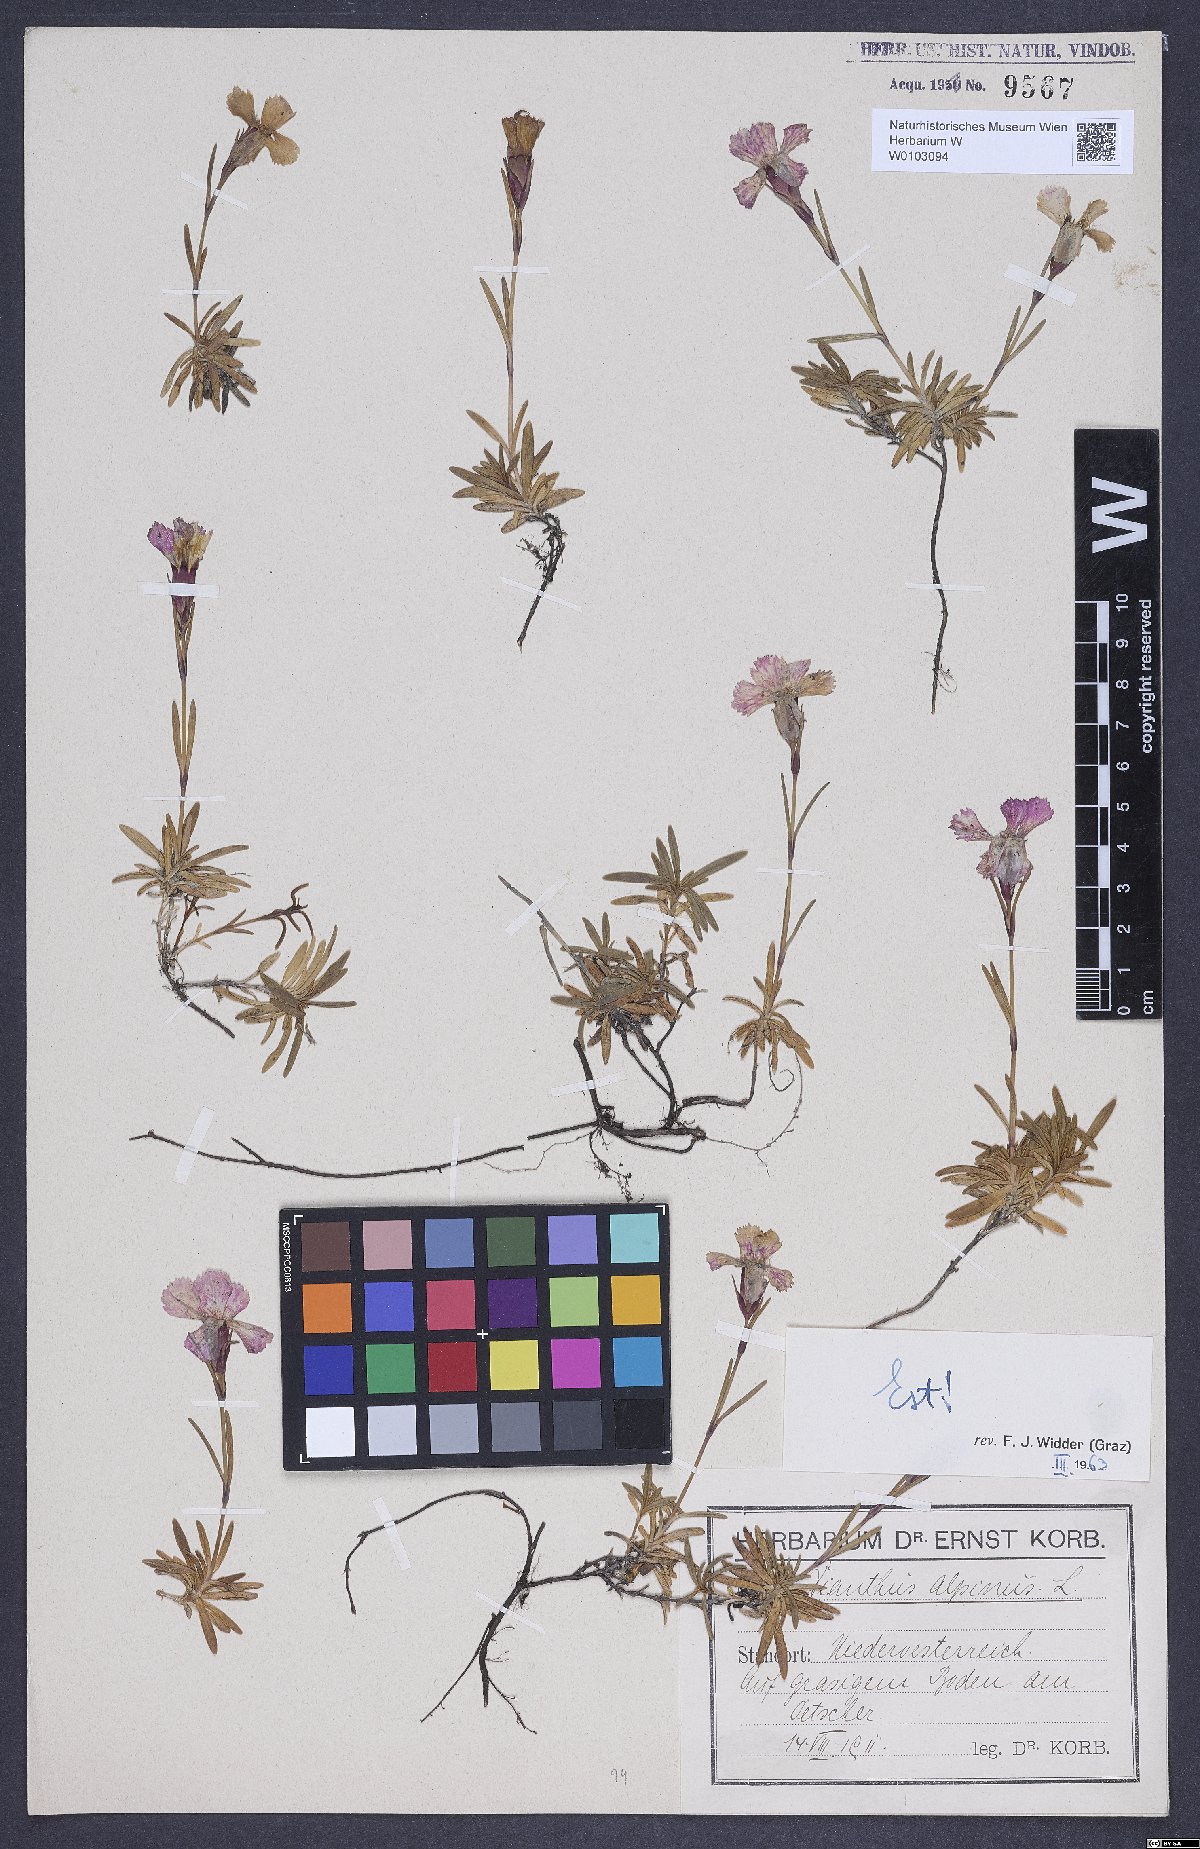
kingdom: Plantae
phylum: Tracheophyta
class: Magnoliopsida
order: Caryophyllales
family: Caryophyllaceae
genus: Dianthus
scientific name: Dianthus alpinus
